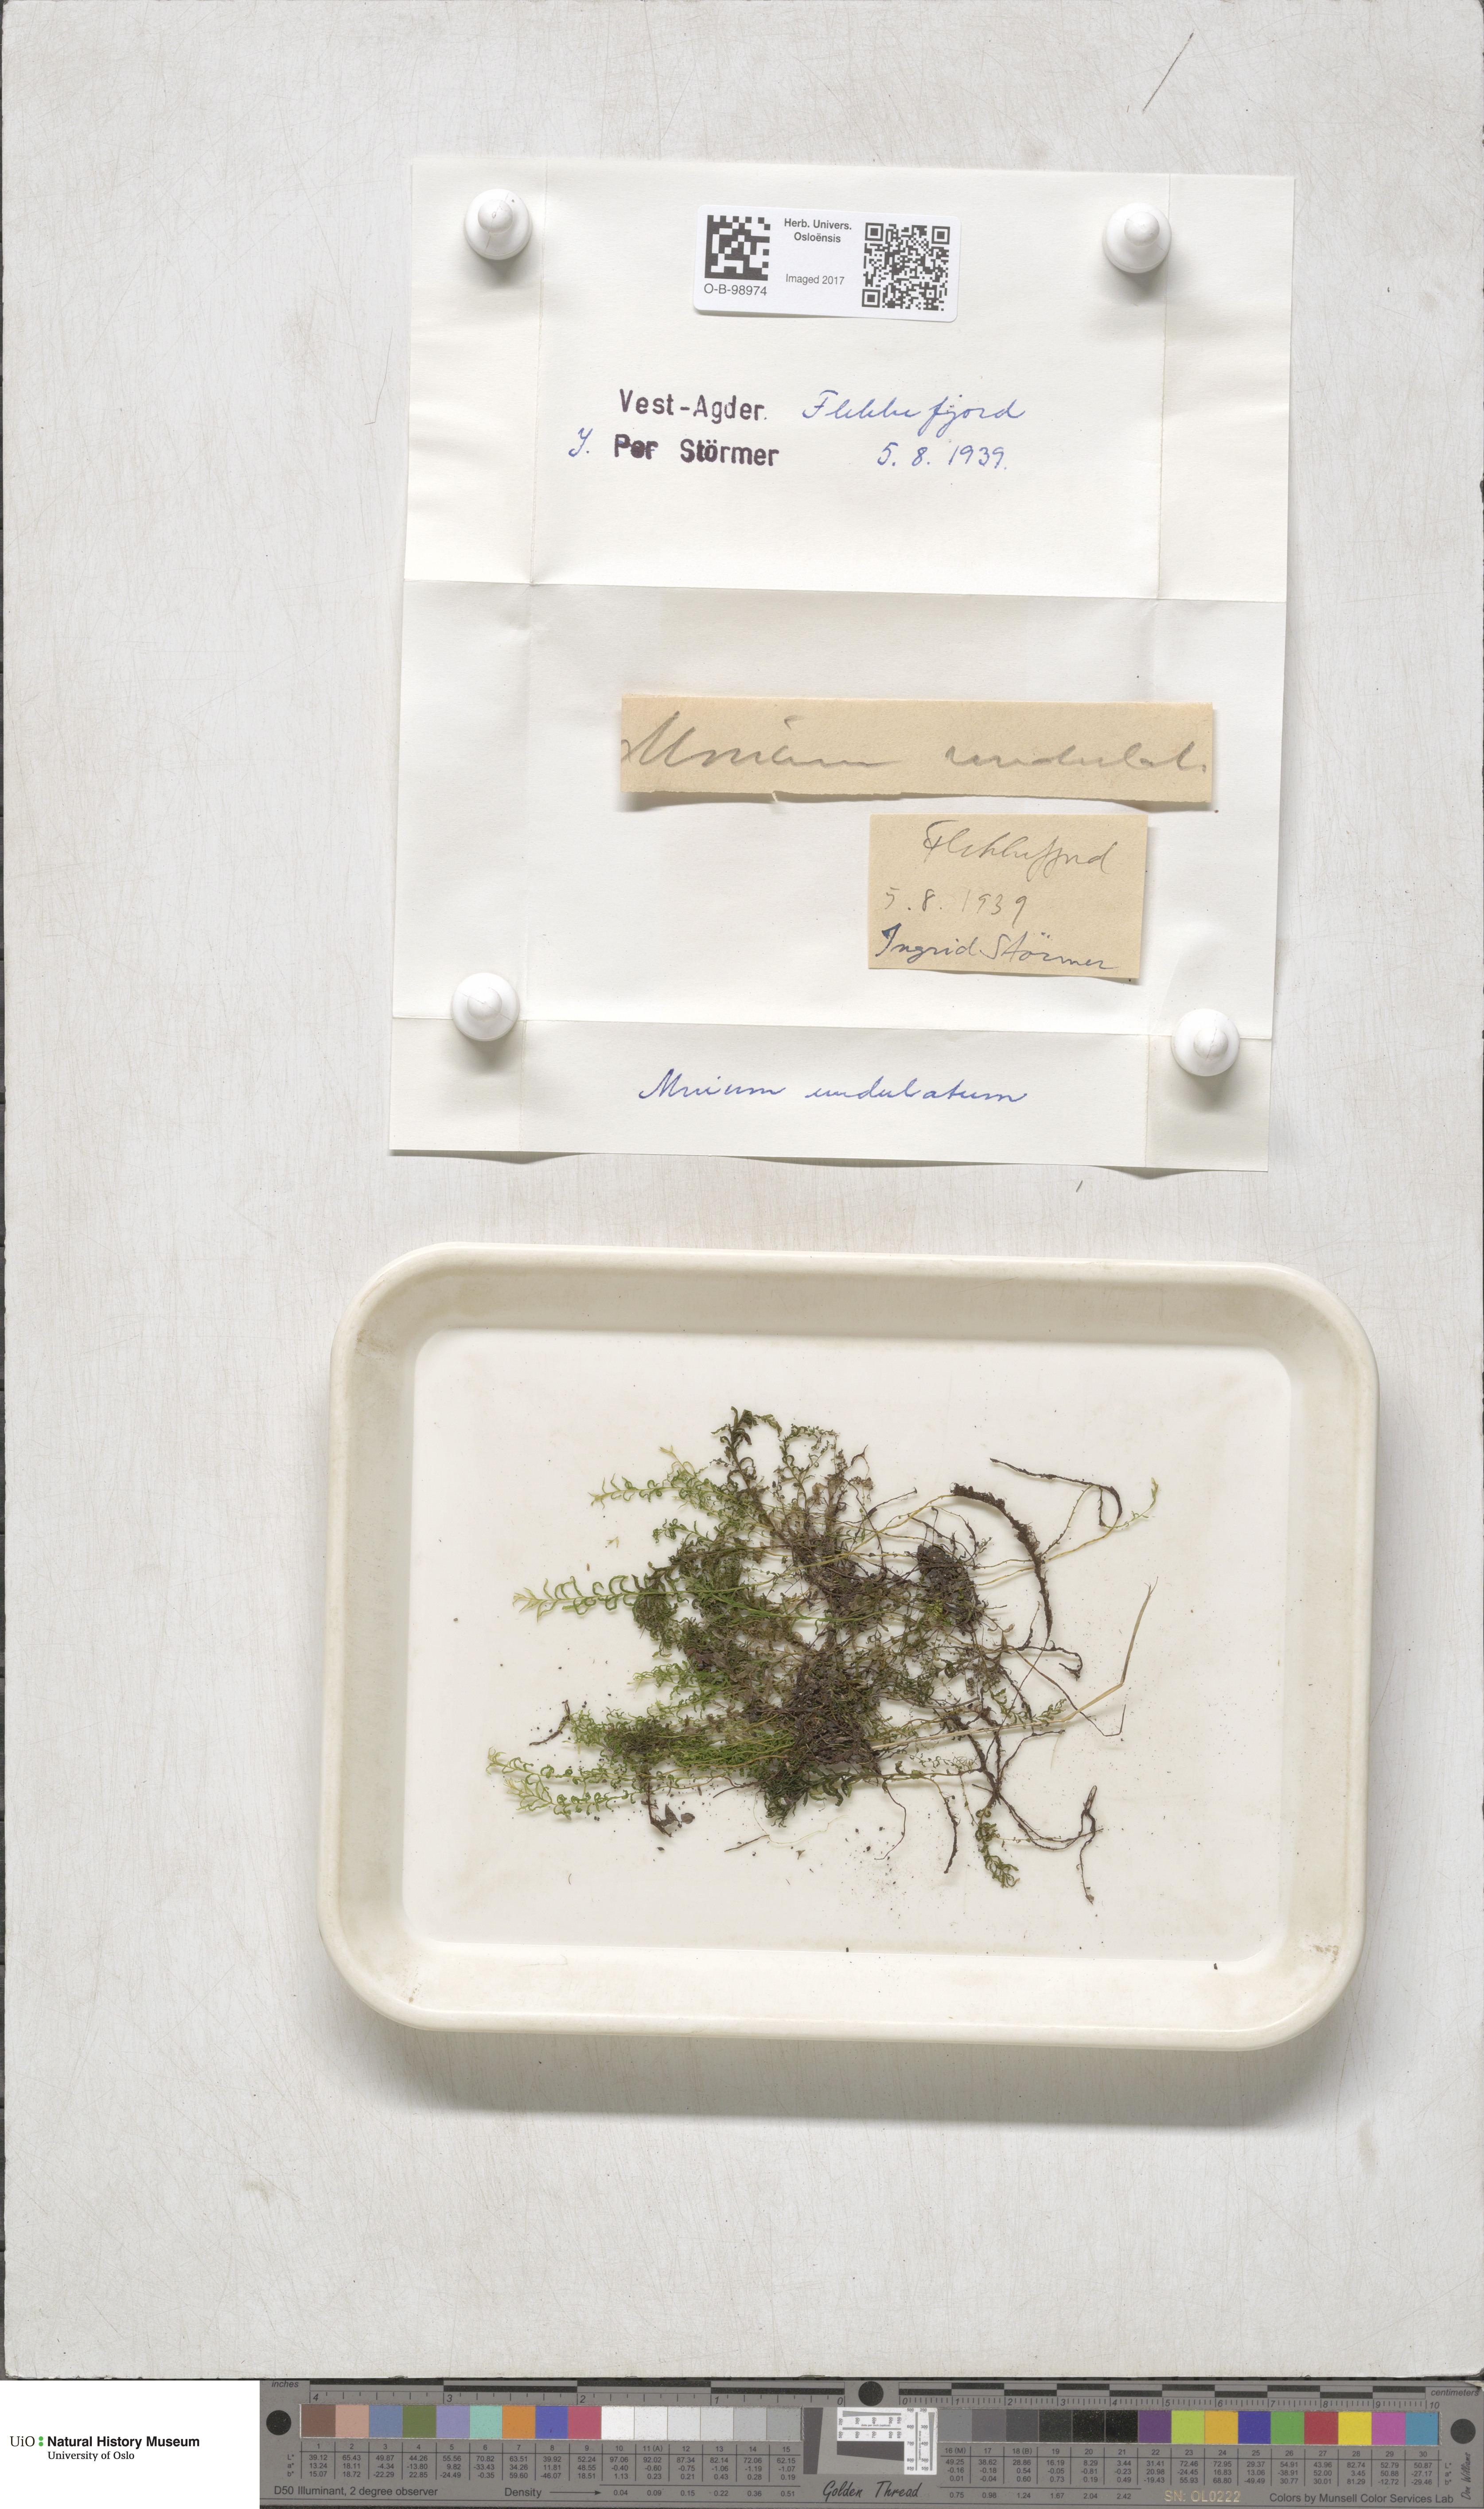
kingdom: Plantae
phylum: Bryophyta
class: Bryopsida
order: Bryales
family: Mniaceae
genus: Plagiomnium
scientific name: Plagiomnium undulatum
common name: Hart's-tongue thyme-moss
